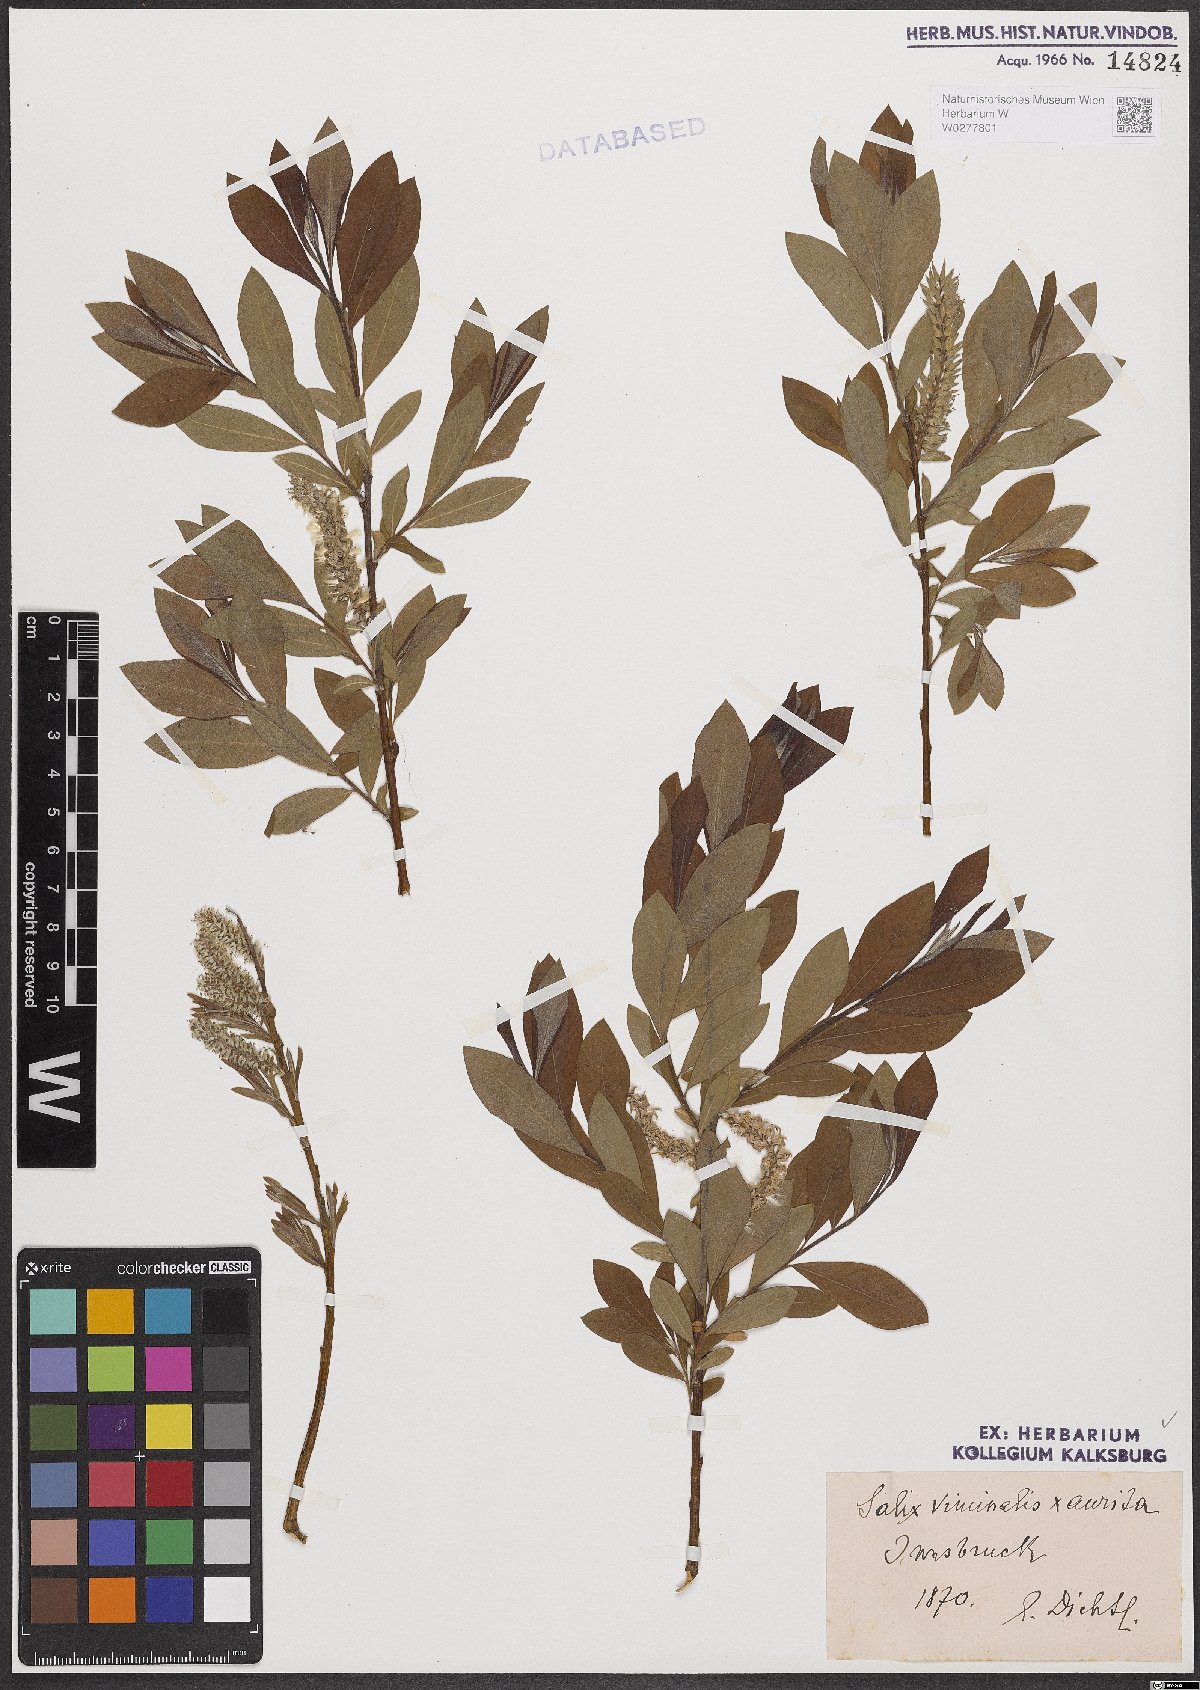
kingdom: Plantae
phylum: Tracheophyta
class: Magnoliopsida
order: Malpighiales
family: Salicaceae
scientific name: Salicaceae
